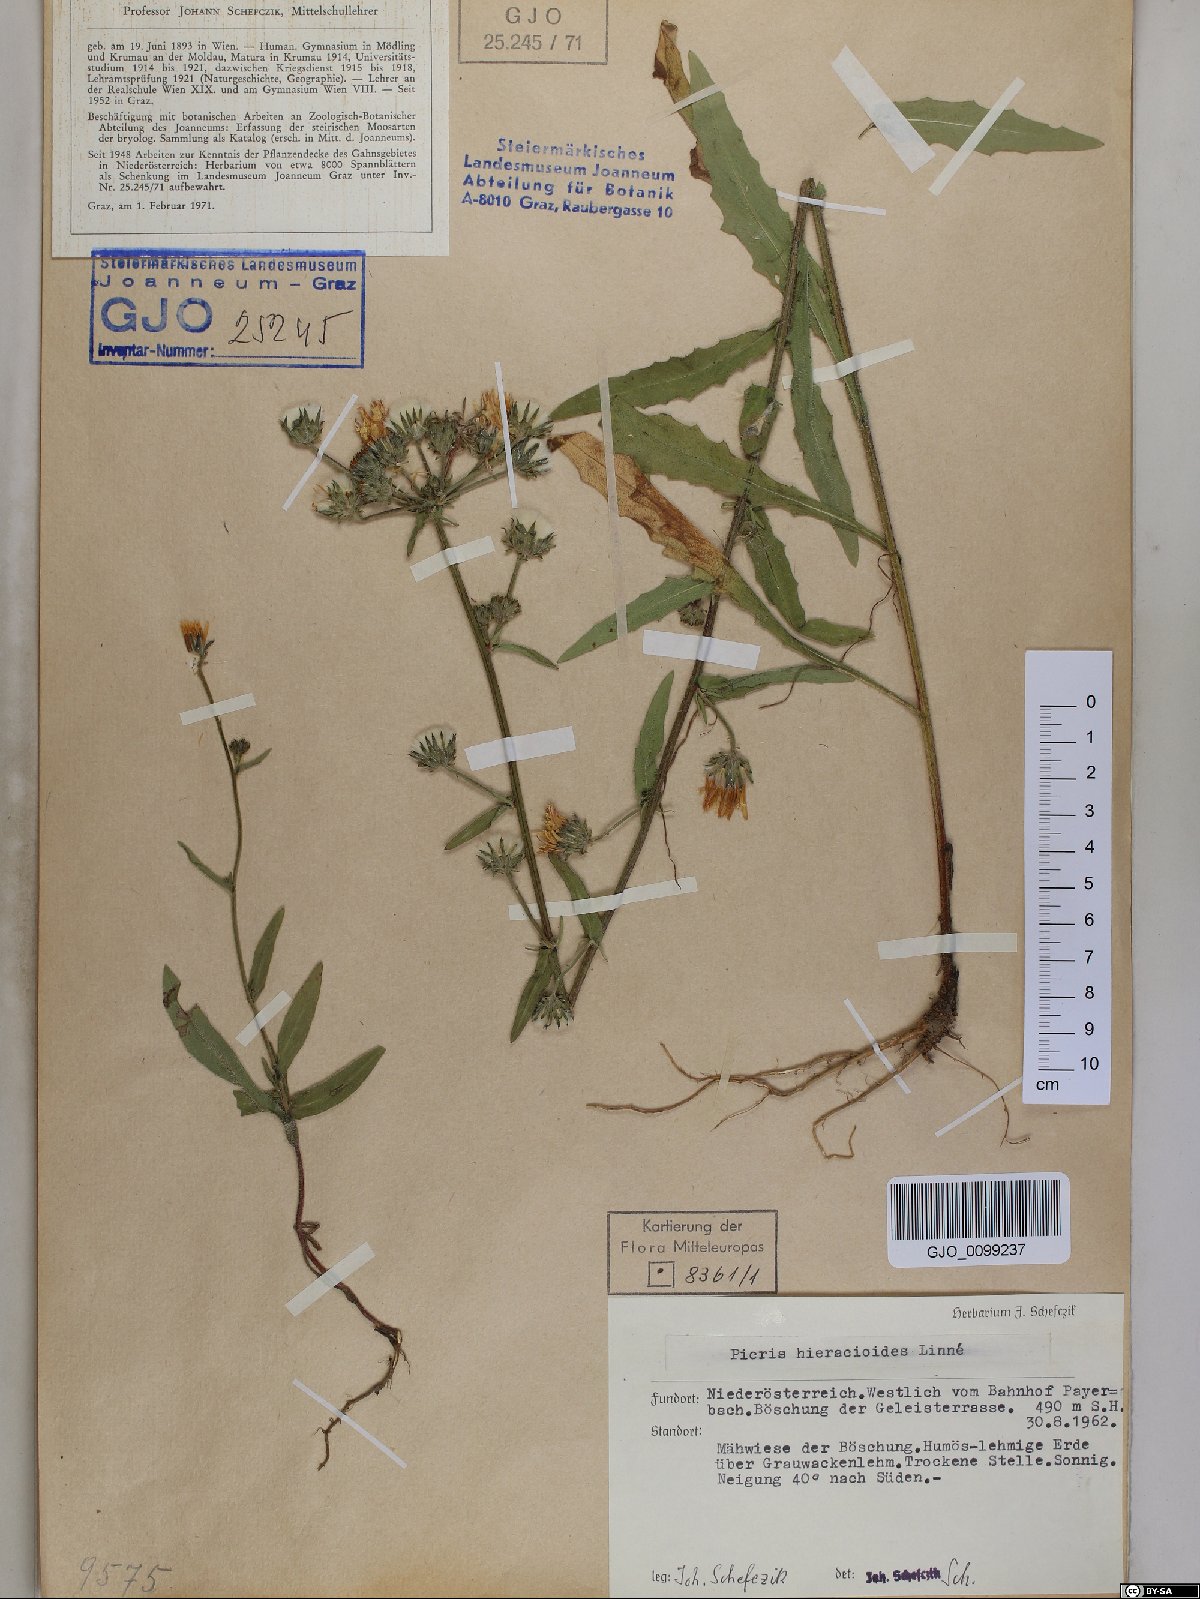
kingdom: Plantae
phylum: Tracheophyta
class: Magnoliopsida
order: Asterales
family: Asteraceae
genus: Picris
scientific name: Picris hieracioides
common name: Hawkweed oxtongue
